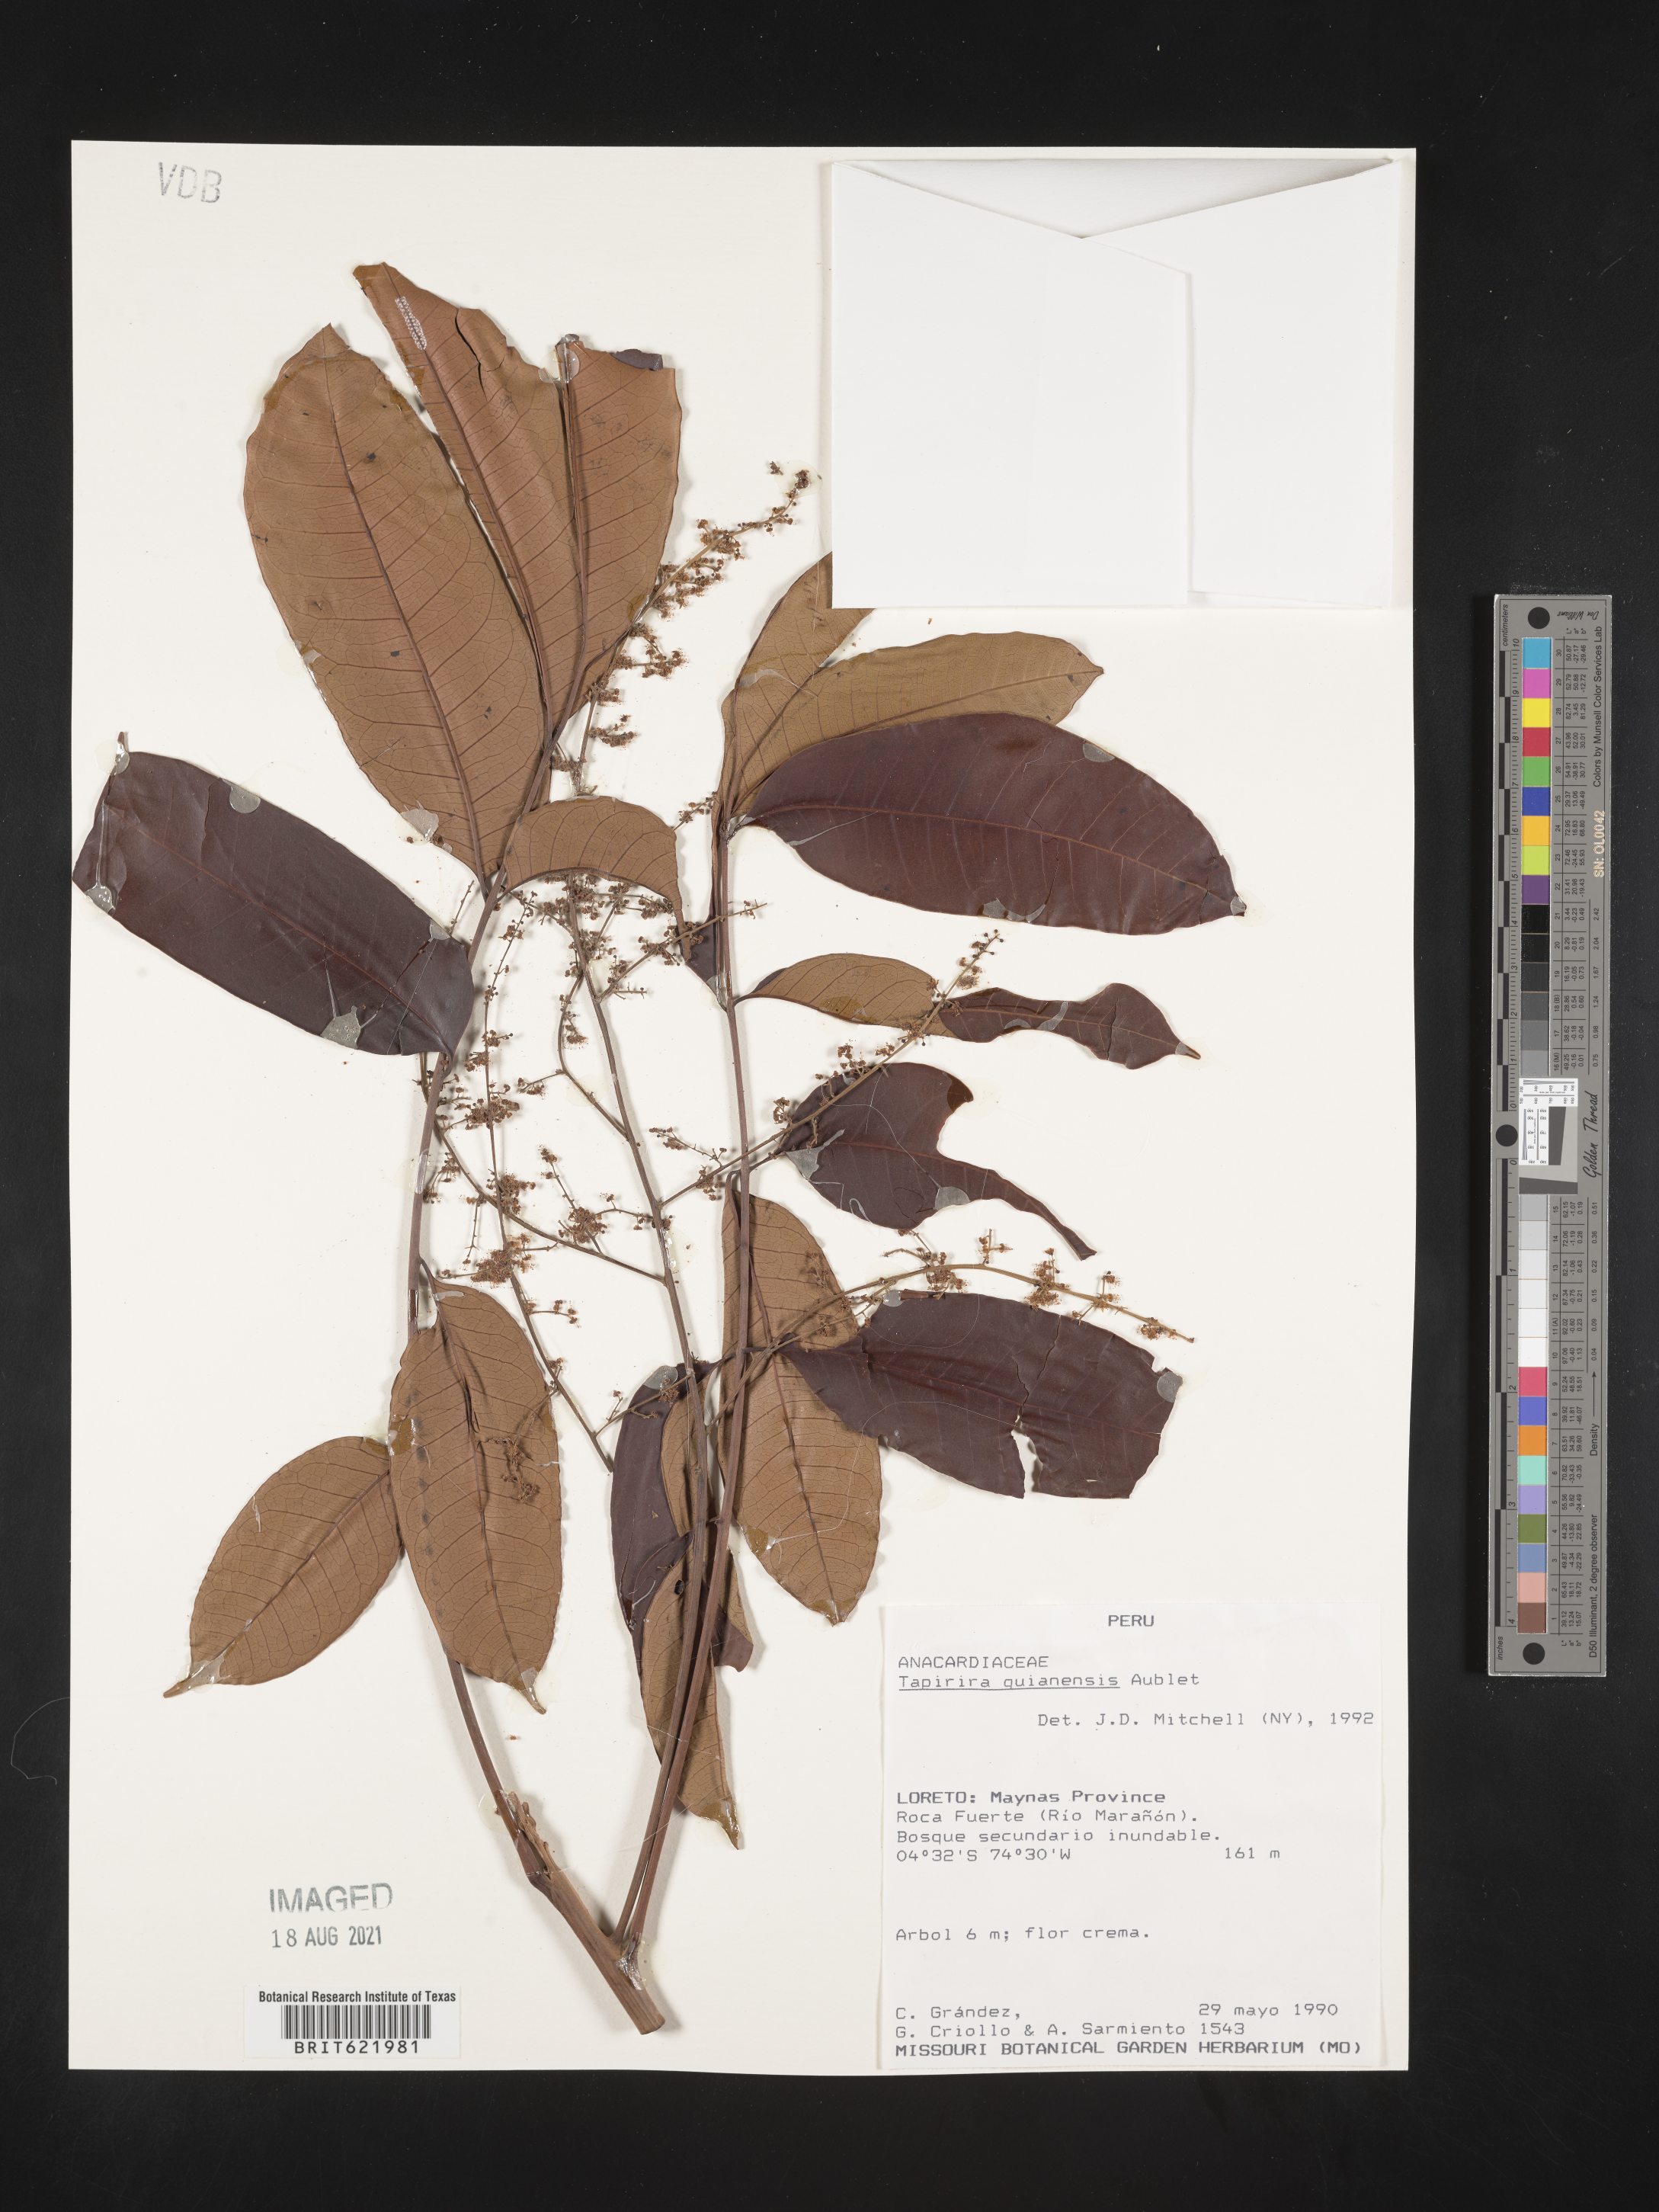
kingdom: Plantae
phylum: Tracheophyta
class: Magnoliopsida
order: Sapindales
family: Anacardiaceae
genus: Tapirira
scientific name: Tapirira guianensis
